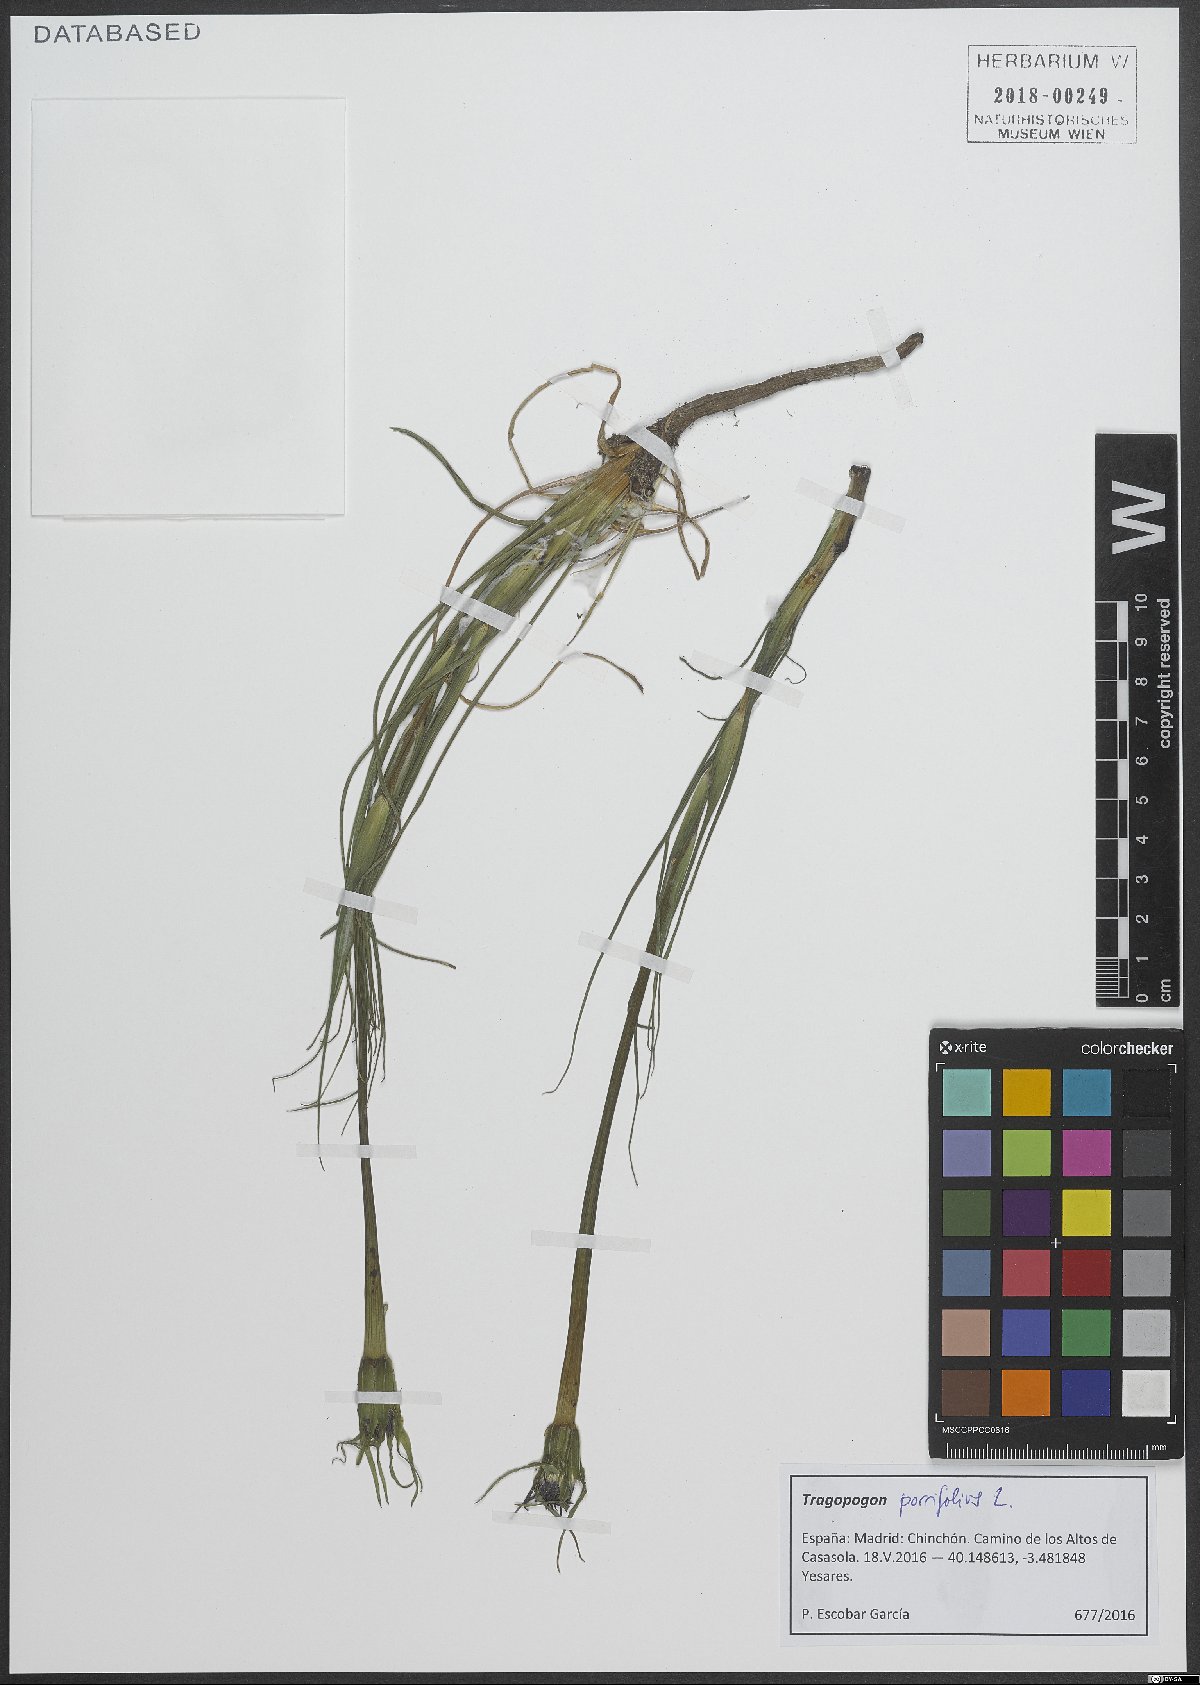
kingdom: Plantae
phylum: Tracheophyta
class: Magnoliopsida
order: Asterales
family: Asteraceae
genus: Tragopogon
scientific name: Tragopogon porrifolius
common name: Salsify
